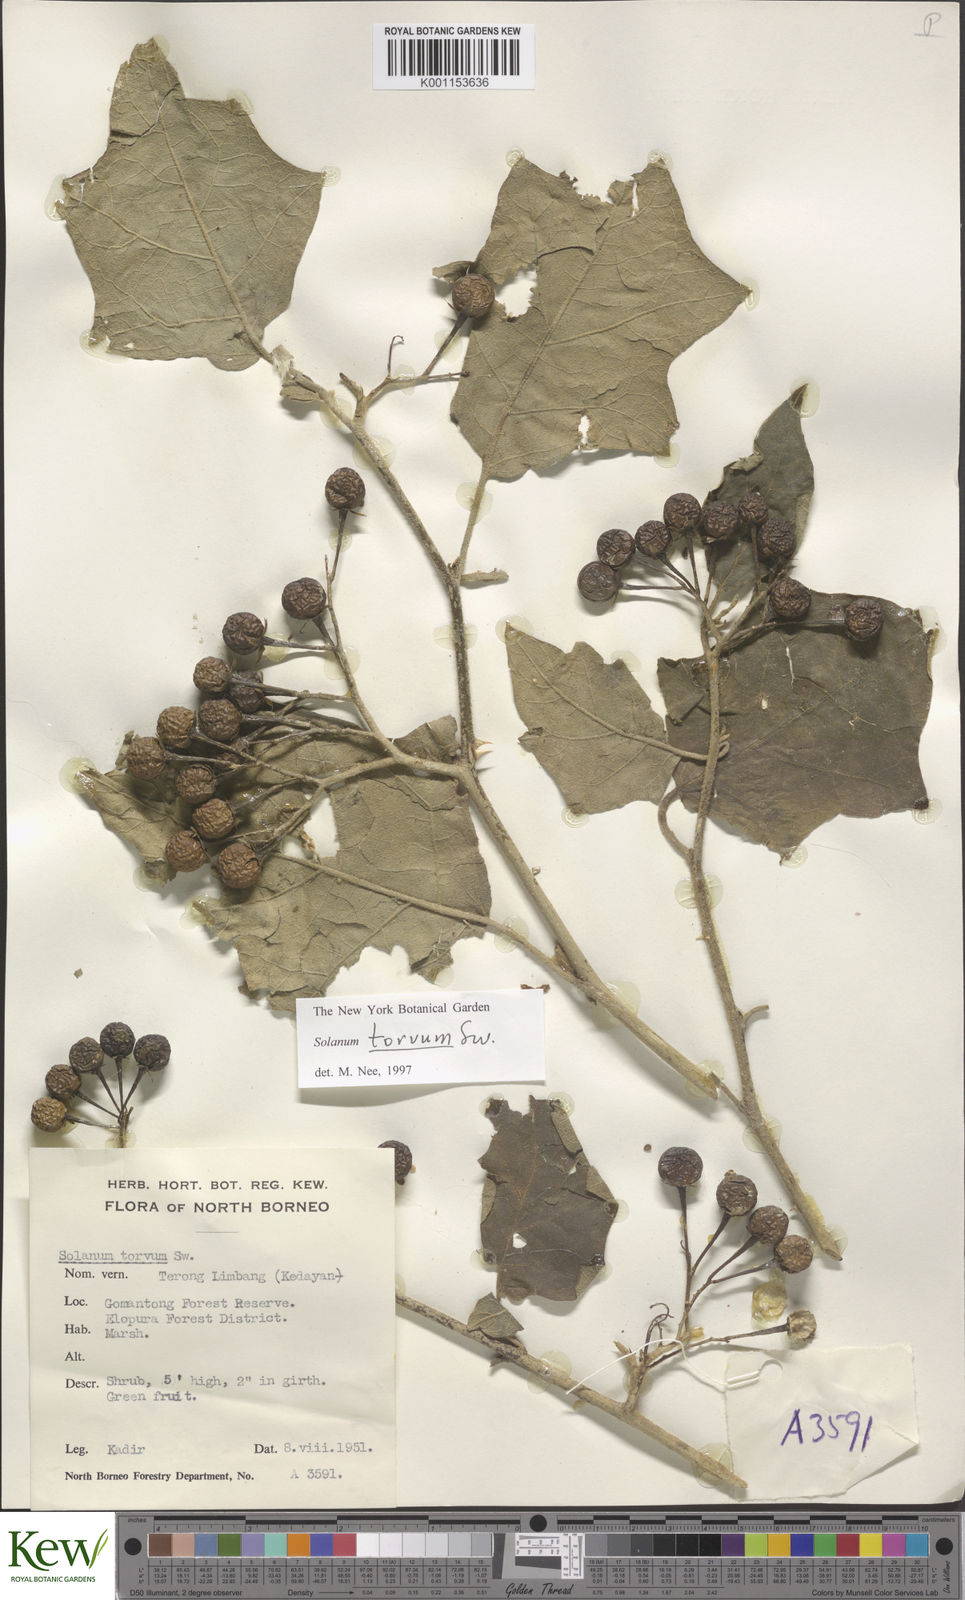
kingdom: Plantae
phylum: Tracheophyta
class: Magnoliopsida
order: Solanales
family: Solanaceae
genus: Solanum
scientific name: Solanum torvum
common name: Turkey berry
